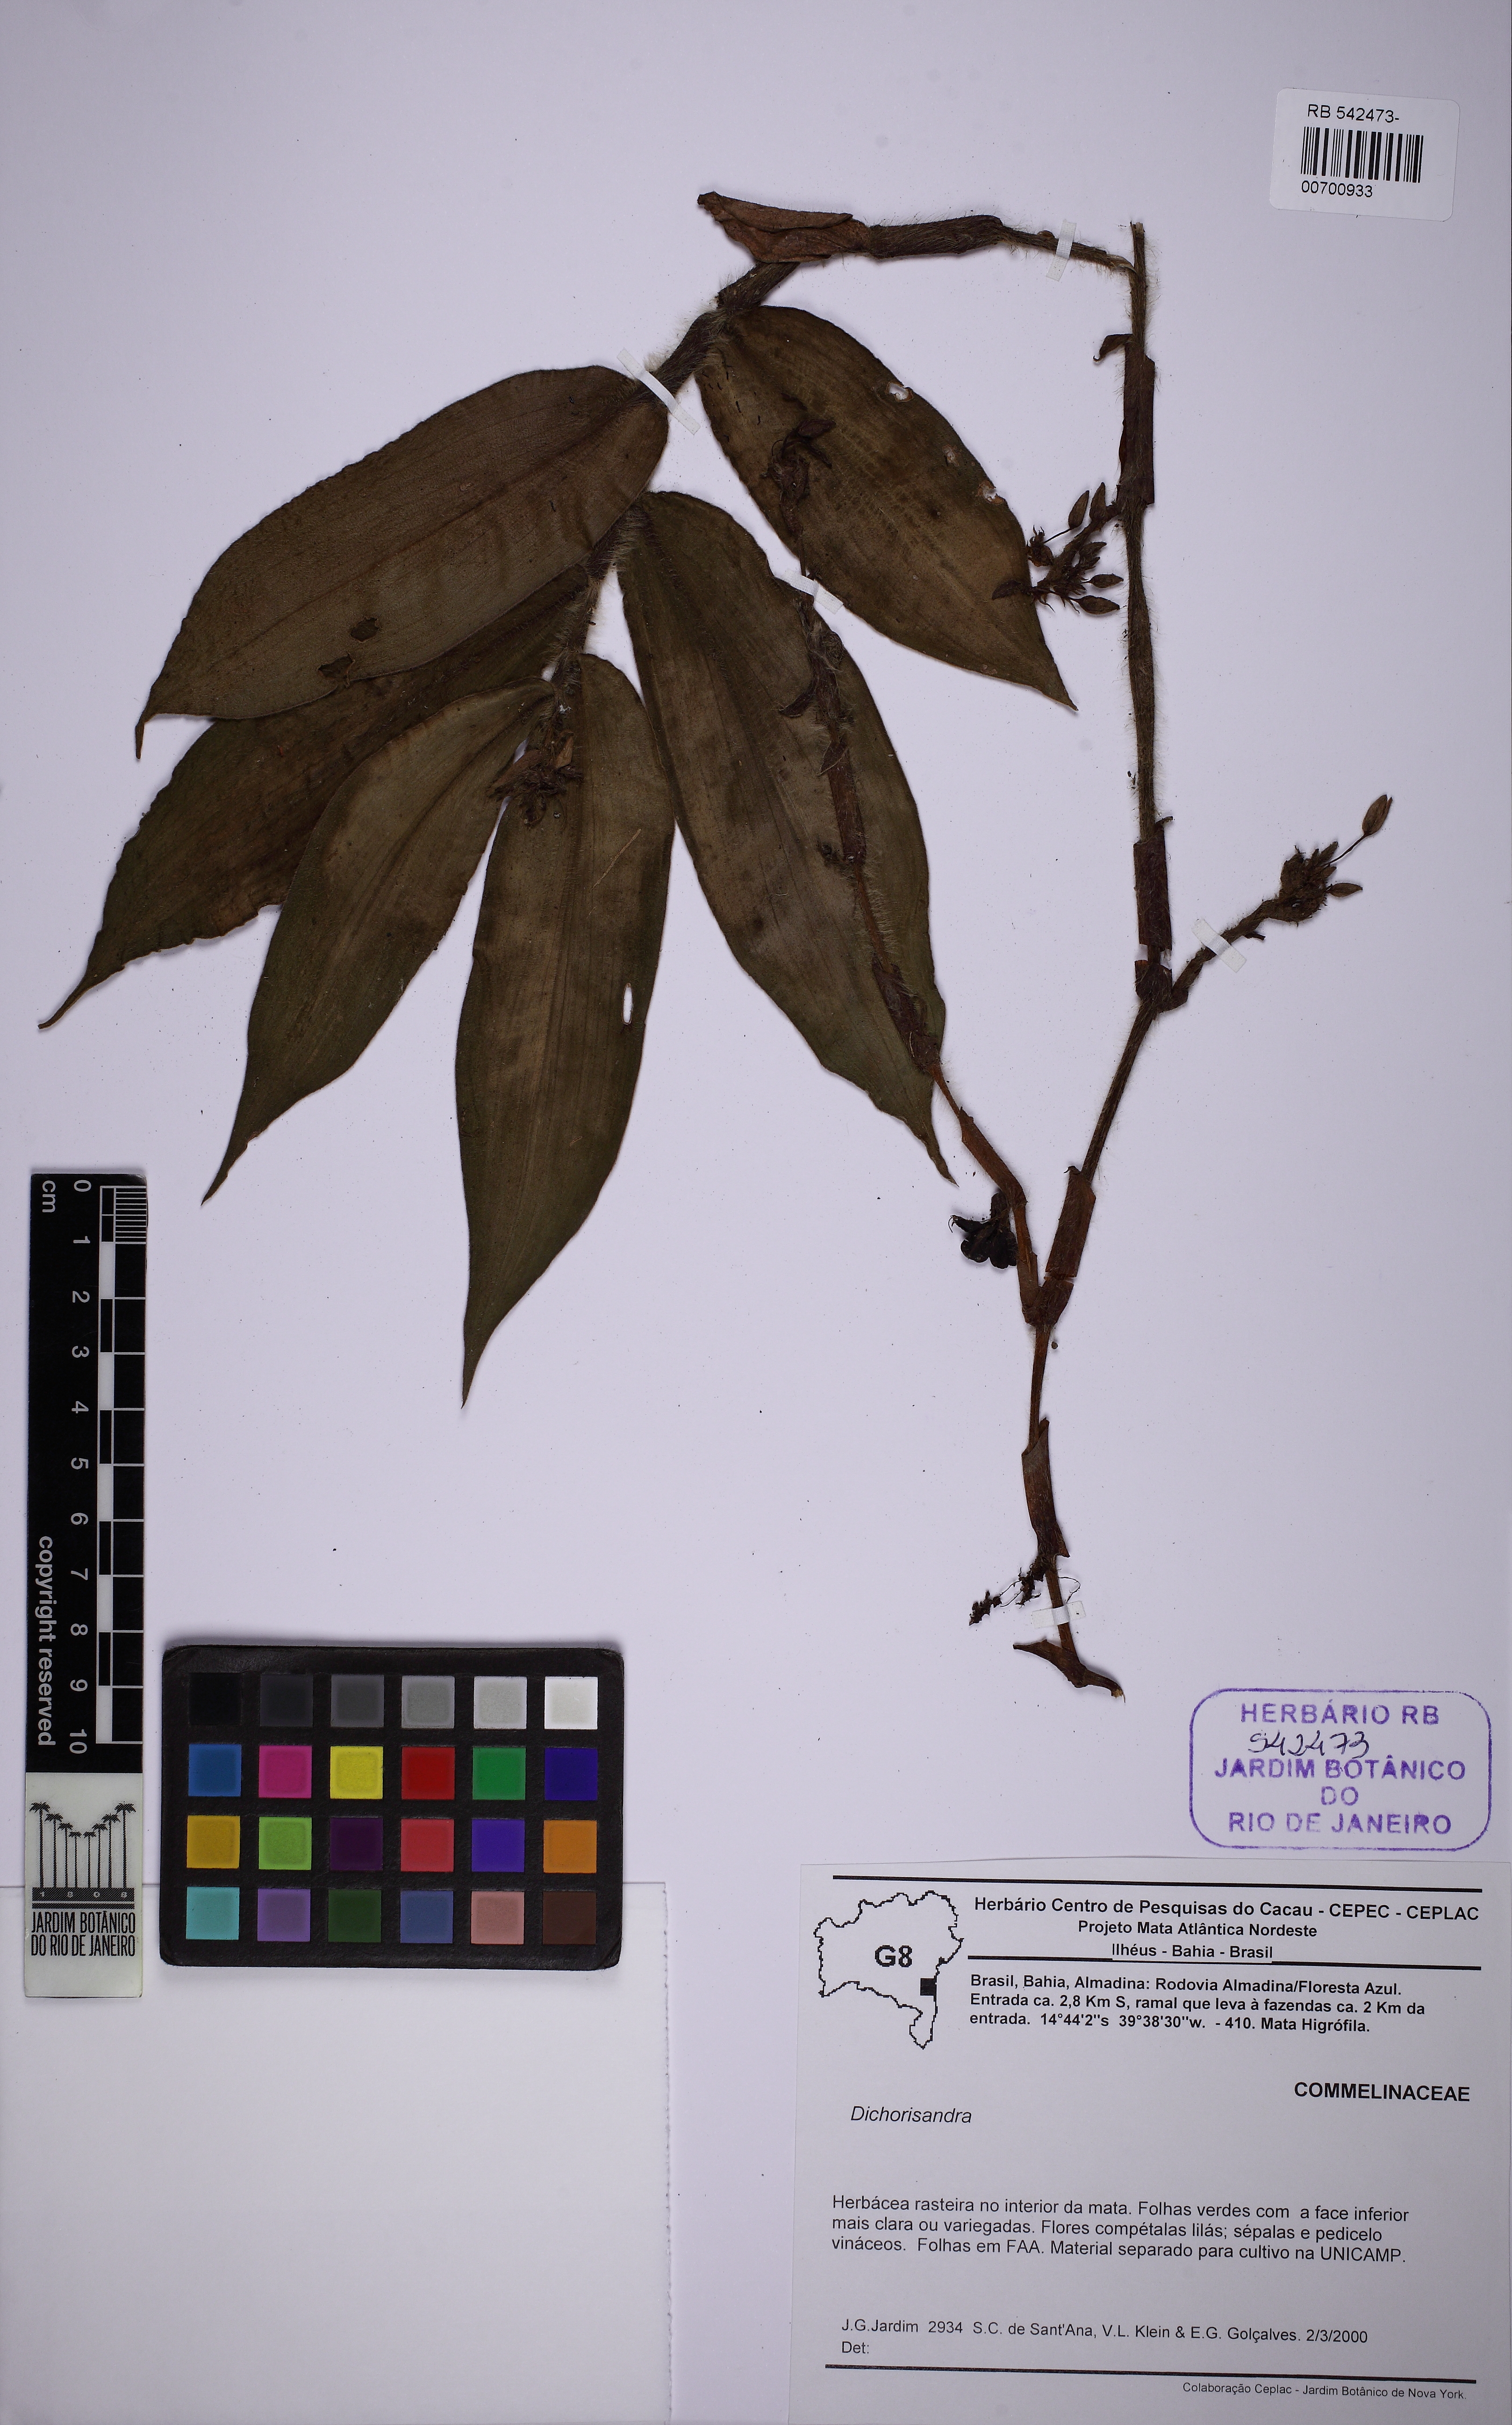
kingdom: Plantae
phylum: Tracheophyta
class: Liliopsida
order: Commelinales
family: Commelinaceae
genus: Dichorisandra
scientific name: Dichorisandra variegata
